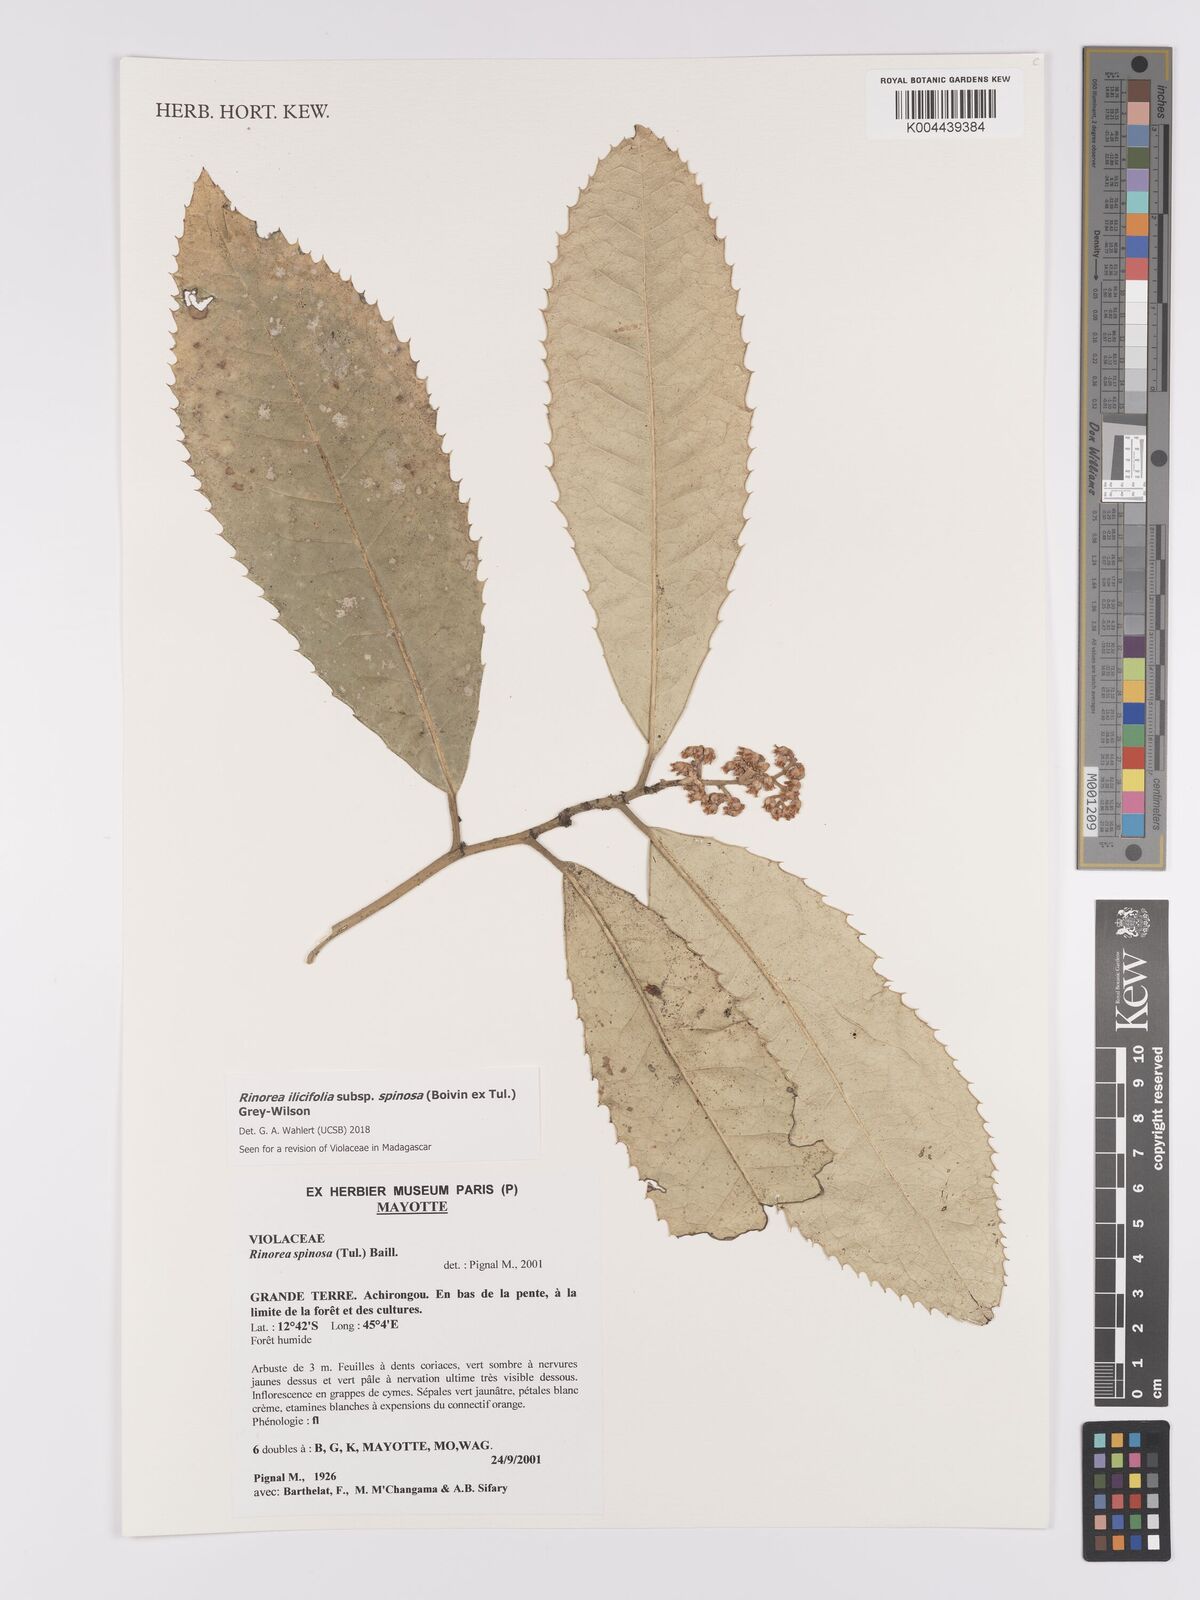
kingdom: Plantae
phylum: Tracheophyta
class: Magnoliopsida
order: Malpighiales
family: Violaceae
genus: Rinorea
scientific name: Rinorea spinosa
